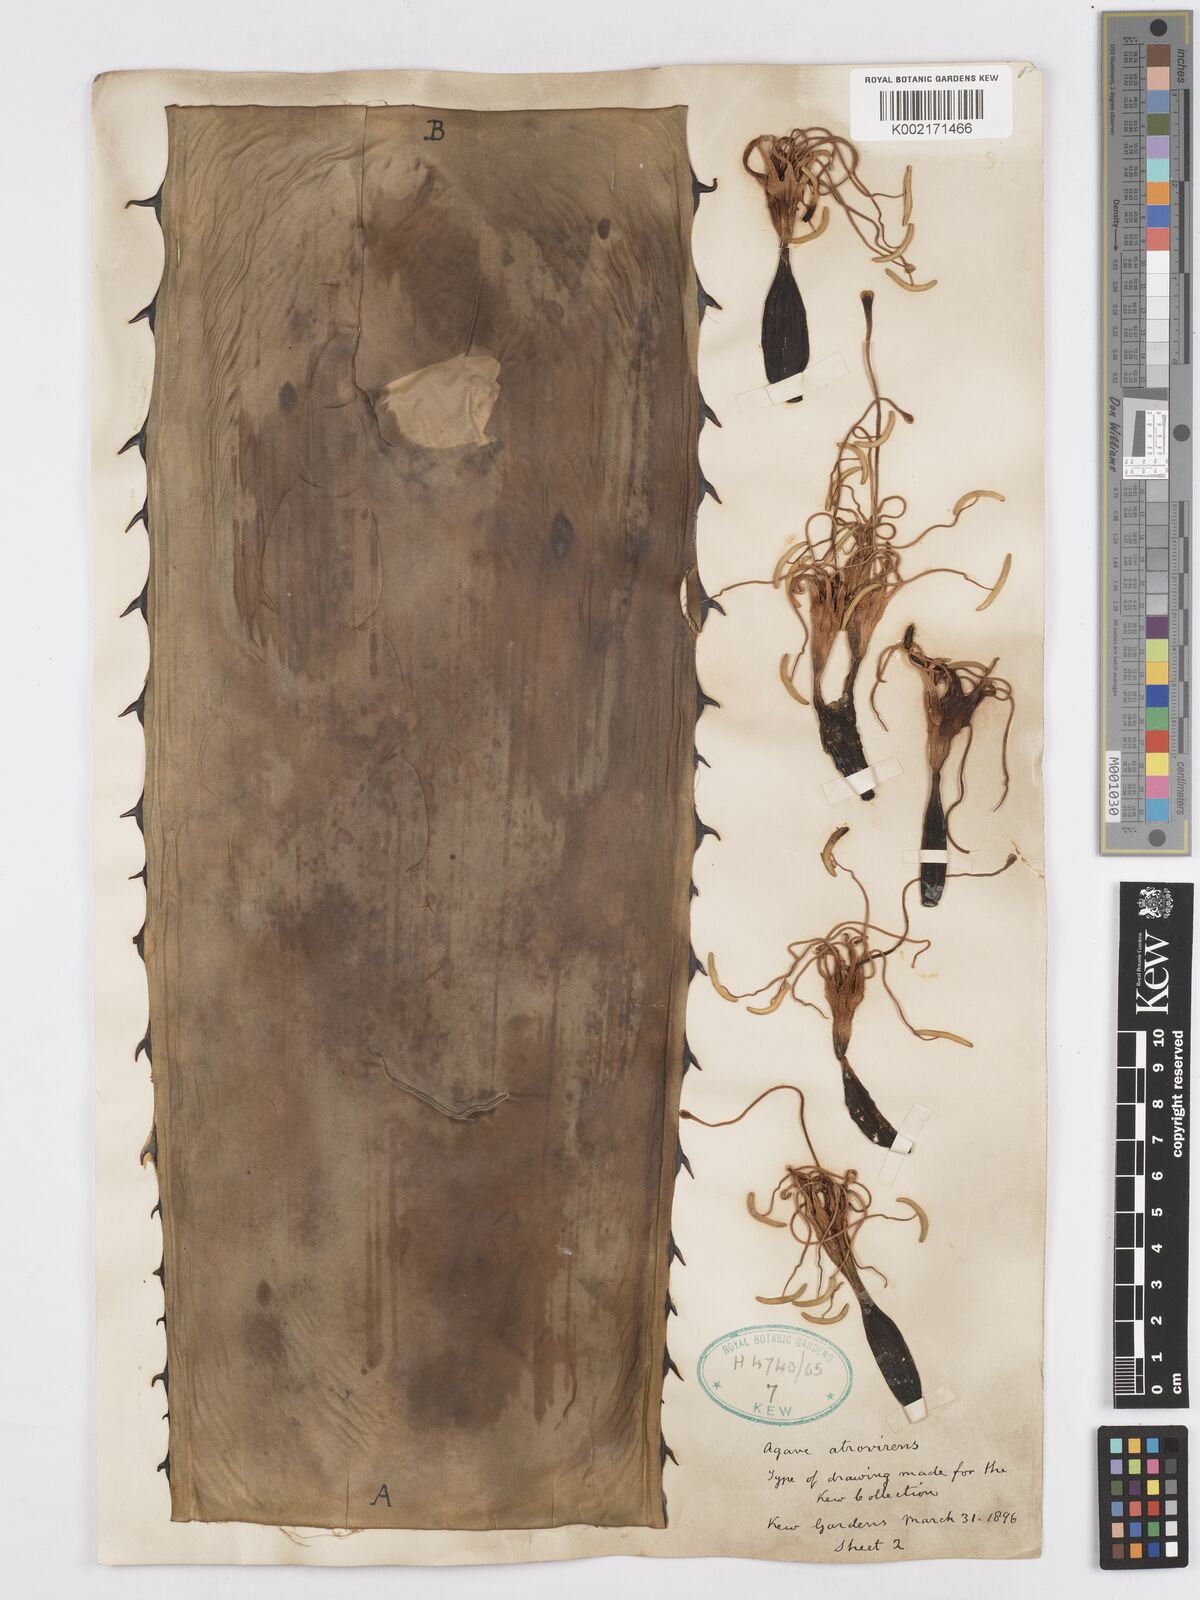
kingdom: Plantae
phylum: Tracheophyta
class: Liliopsida
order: Asparagales
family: Asparagaceae
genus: Agave
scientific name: Agave atrovirens
